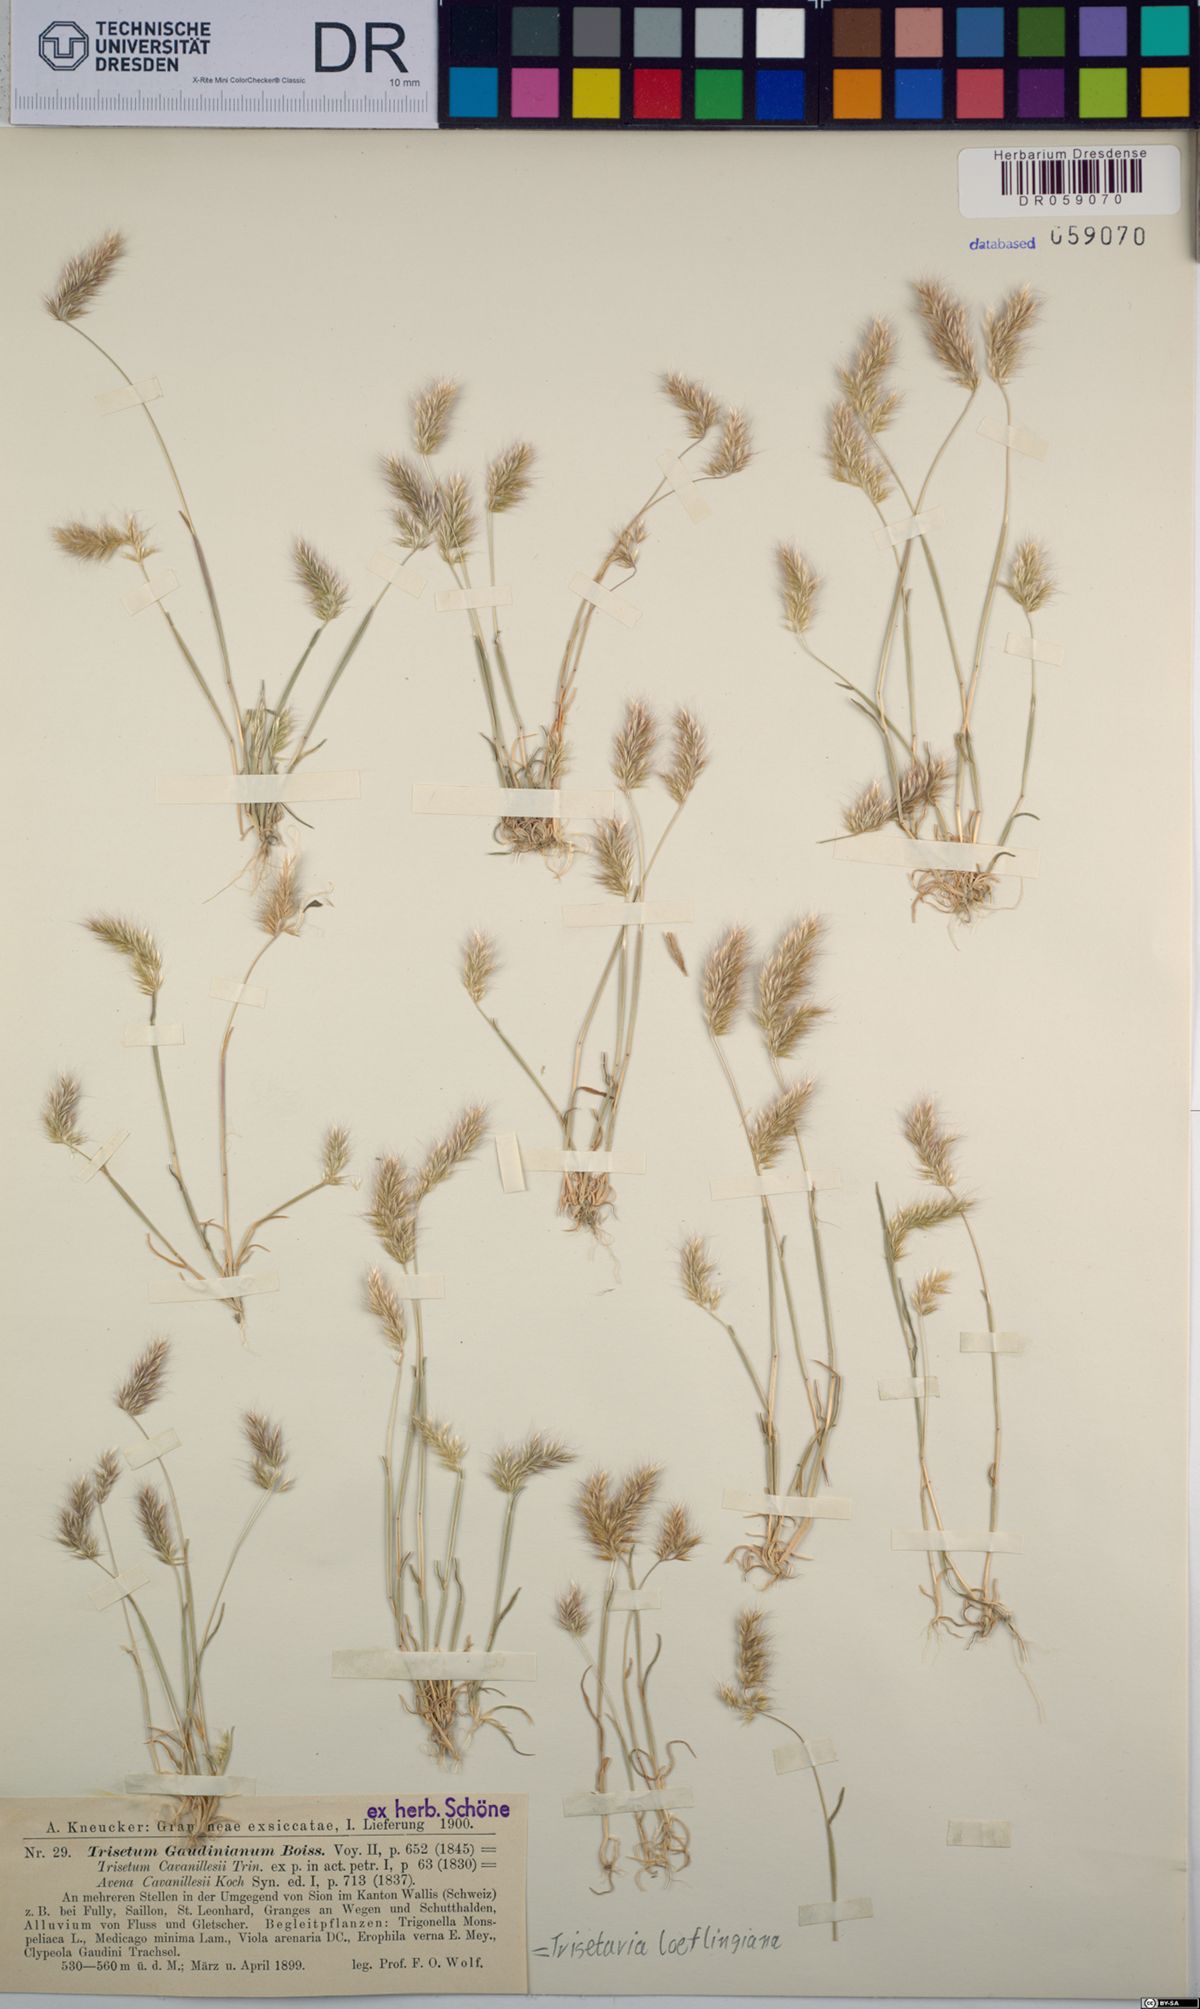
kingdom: Plantae
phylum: Tracheophyta
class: Liliopsida
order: Poales
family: Poaceae
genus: Trisetaria
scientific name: Trisetaria loeflingiana
